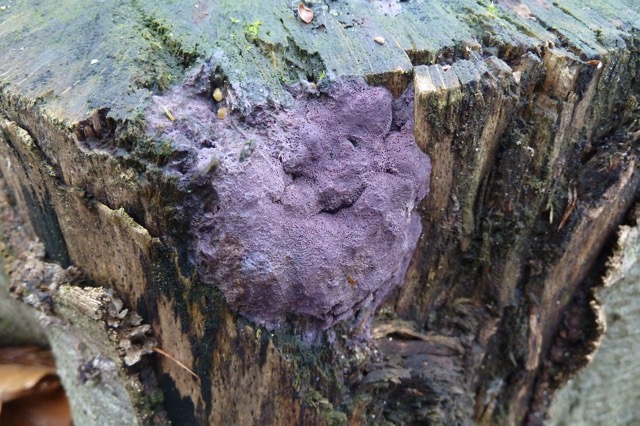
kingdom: Fungi
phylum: Ascomycota
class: Sordariomycetes
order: Hypocreales
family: Bionectriaceae
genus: Nectriopsis
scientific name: Nectriopsis violacea
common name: violet snyltespind
